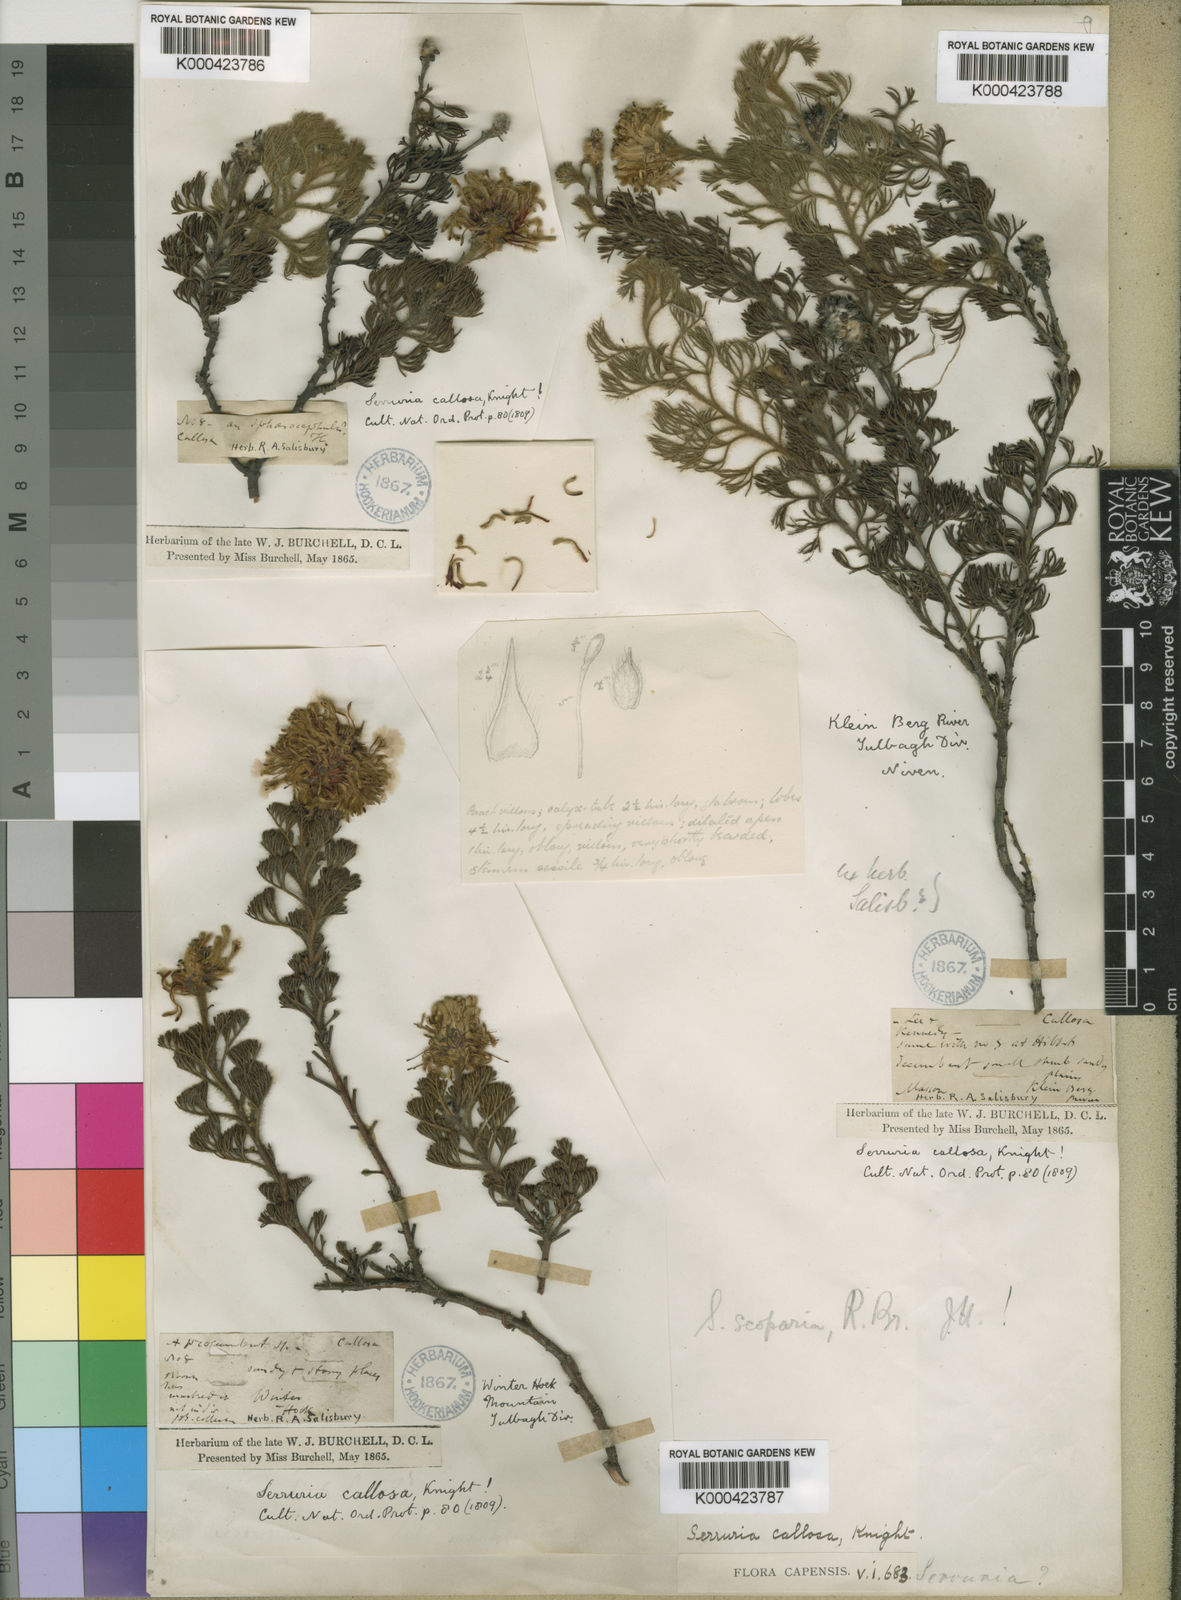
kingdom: Plantae
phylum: Tracheophyta
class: Magnoliopsida
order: Proteales
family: Proteaceae
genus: Serruria
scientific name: Serruria scoparia
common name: Forlorn spiderhead
